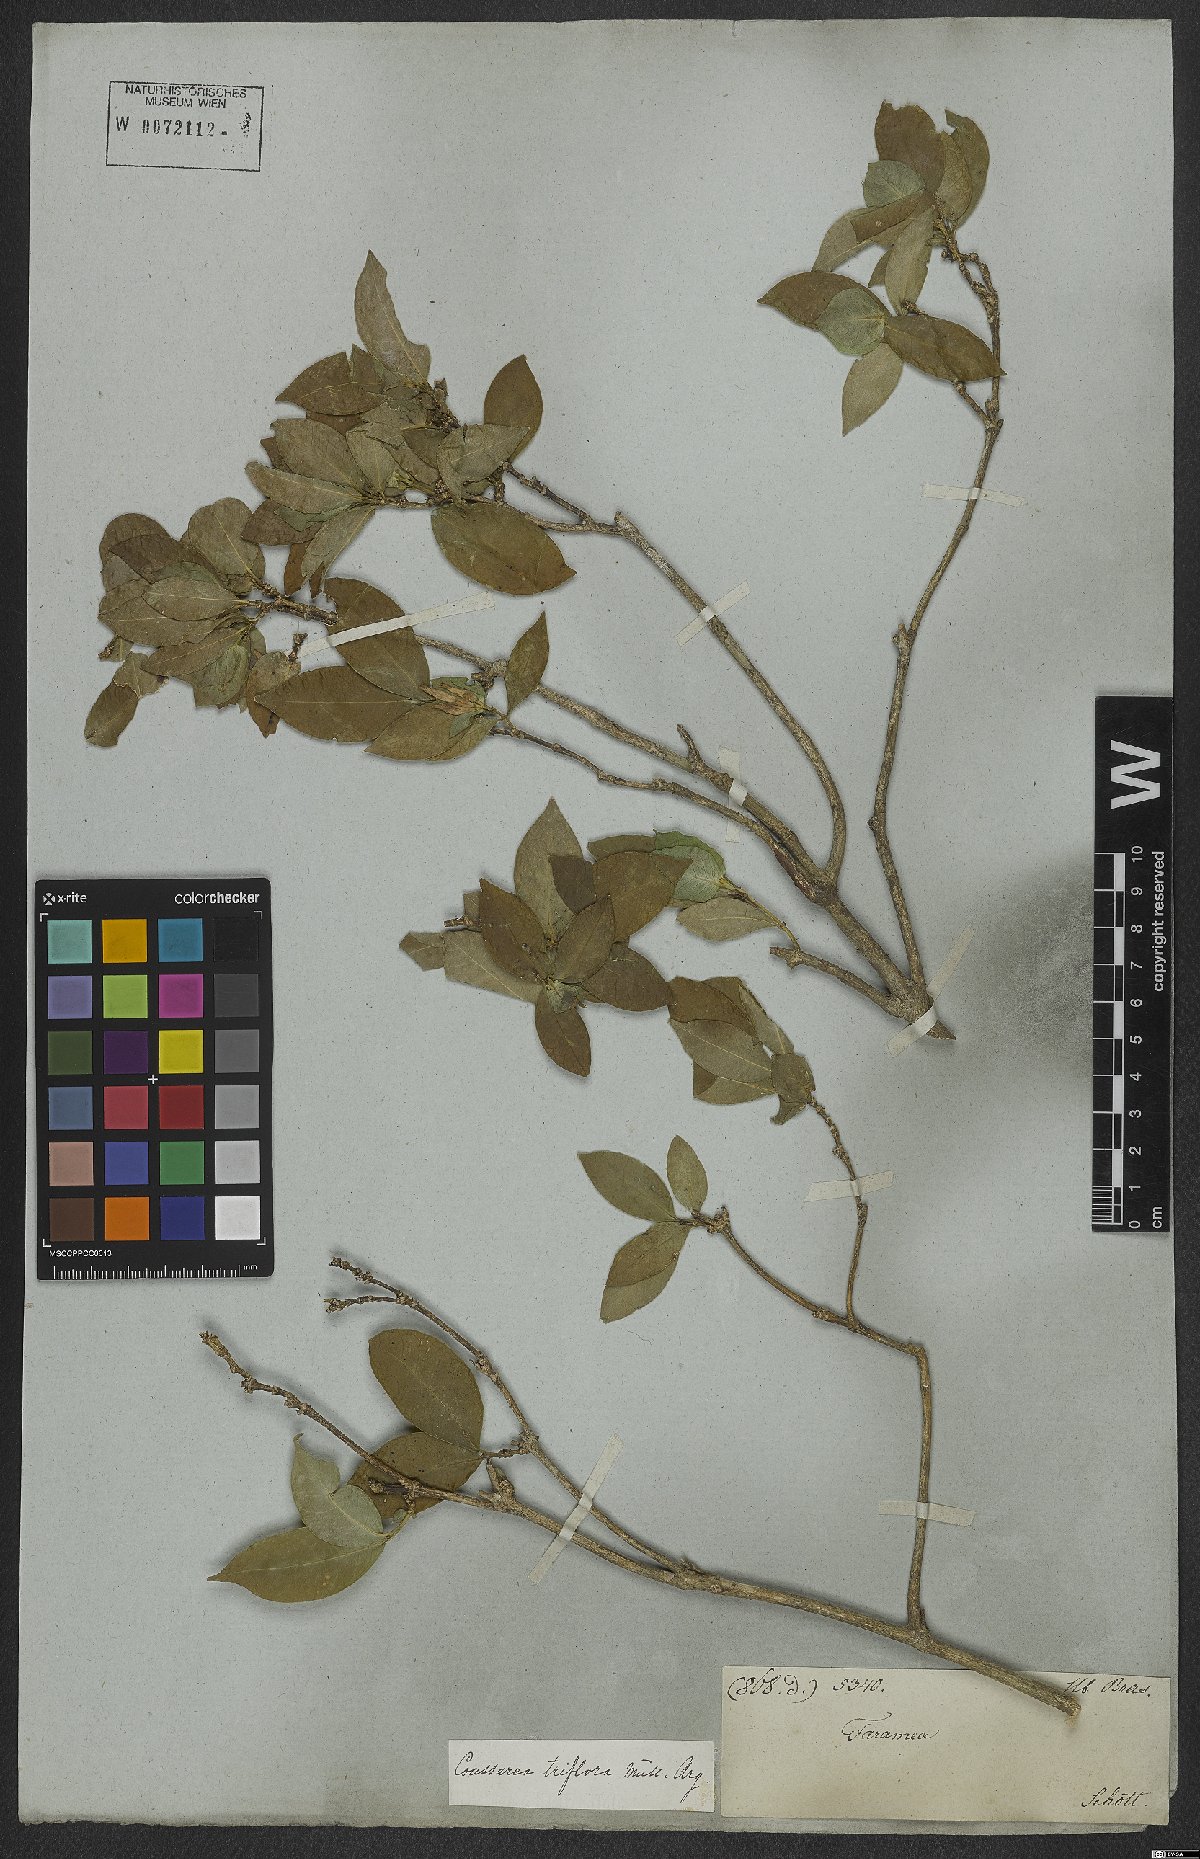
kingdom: Plantae
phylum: Tracheophyta
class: Magnoliopsida
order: Gentianales
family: Rubiaceae
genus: Coussarea
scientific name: Coussarea triflora
